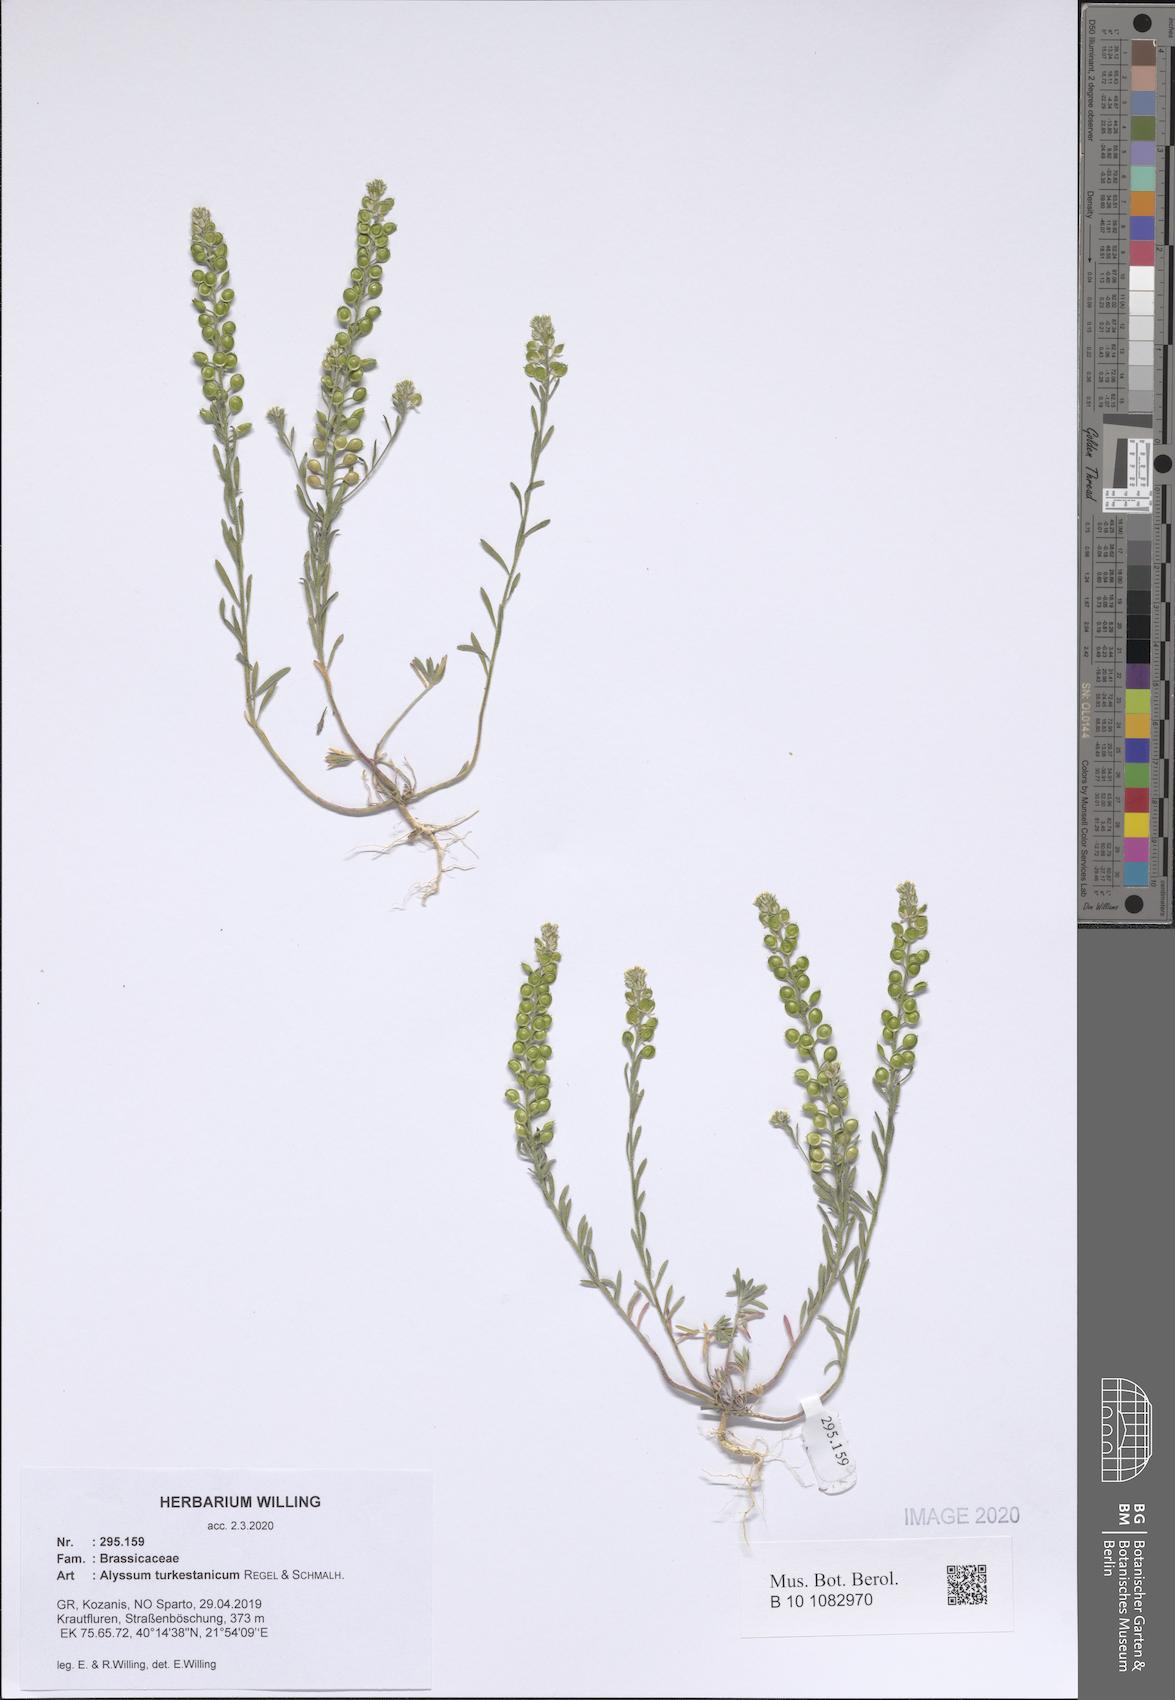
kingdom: Plantae
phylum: Tracheophyta
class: Magnoliopsida
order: Brassicales
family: Brassicaceae
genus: Alyssum
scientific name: Alyssum turkestanicum
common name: Desert alyssum
